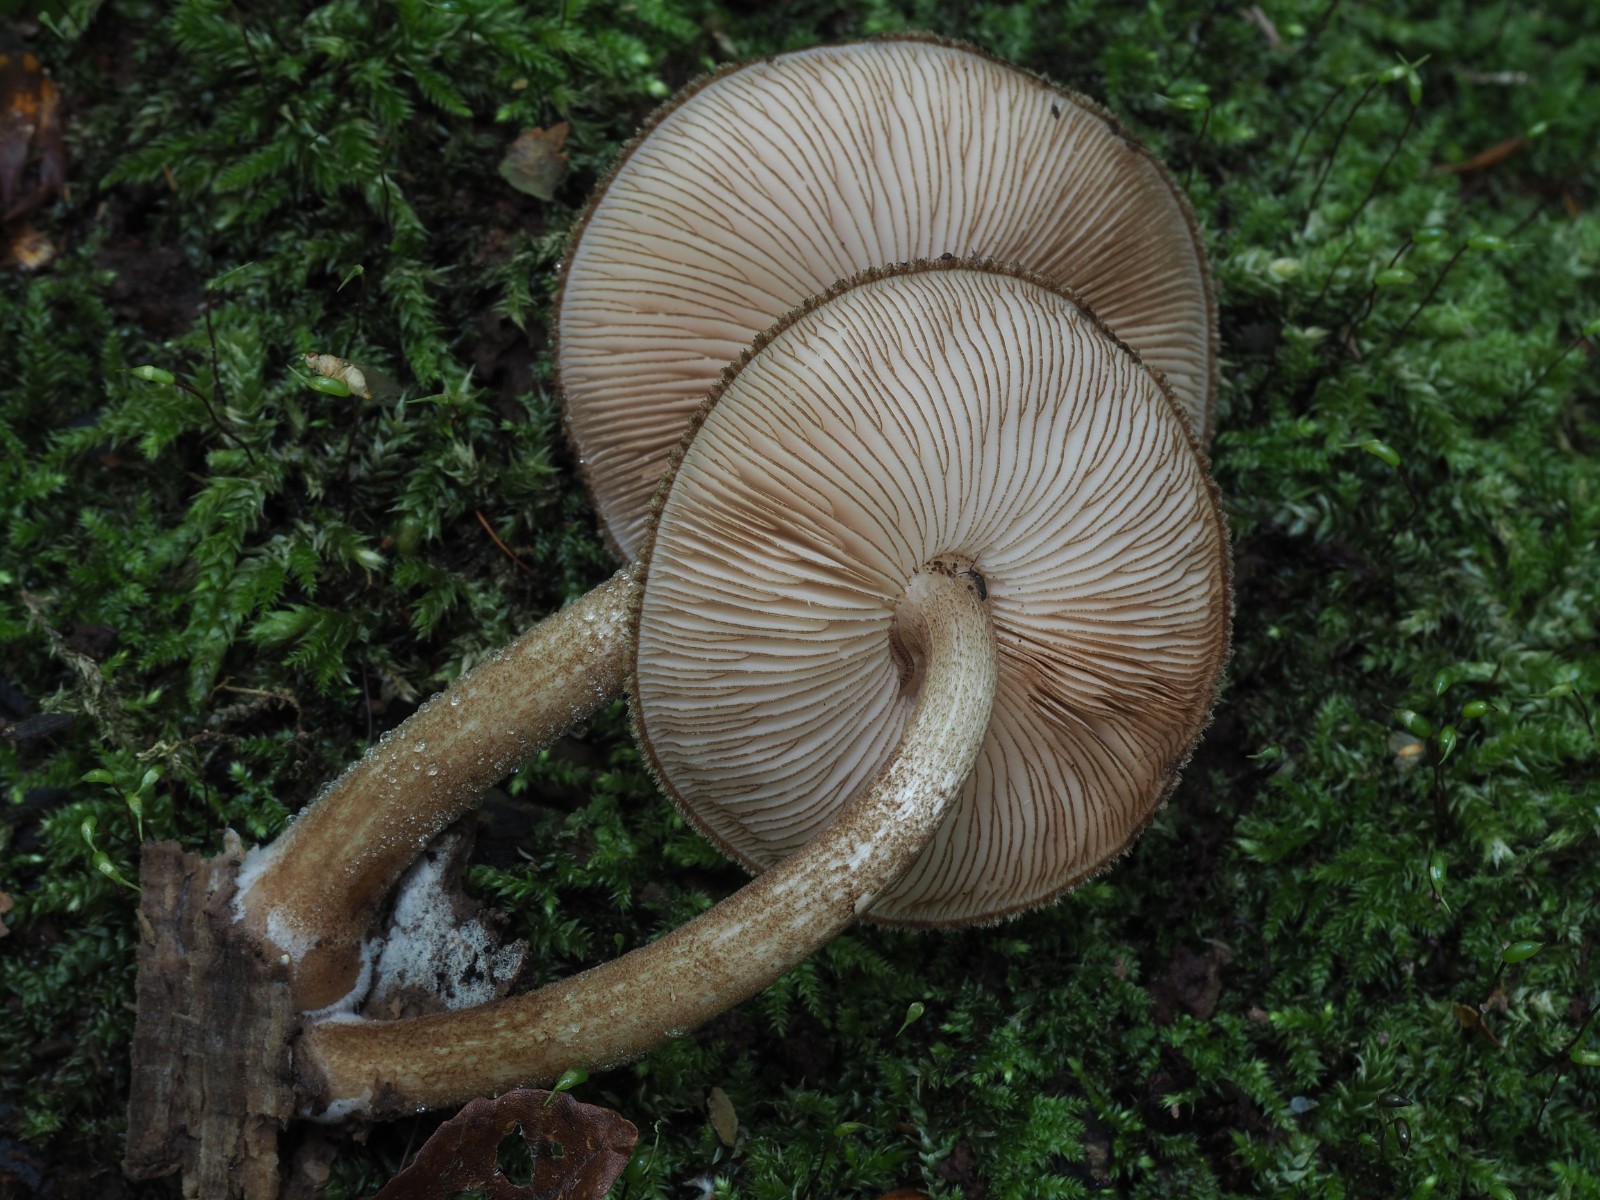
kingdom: Fungi
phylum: Basidiomycota
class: Agaricomycetes
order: Agaricales
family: Pluteaceae
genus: Pluteus
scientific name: Pluteus umbrosus
